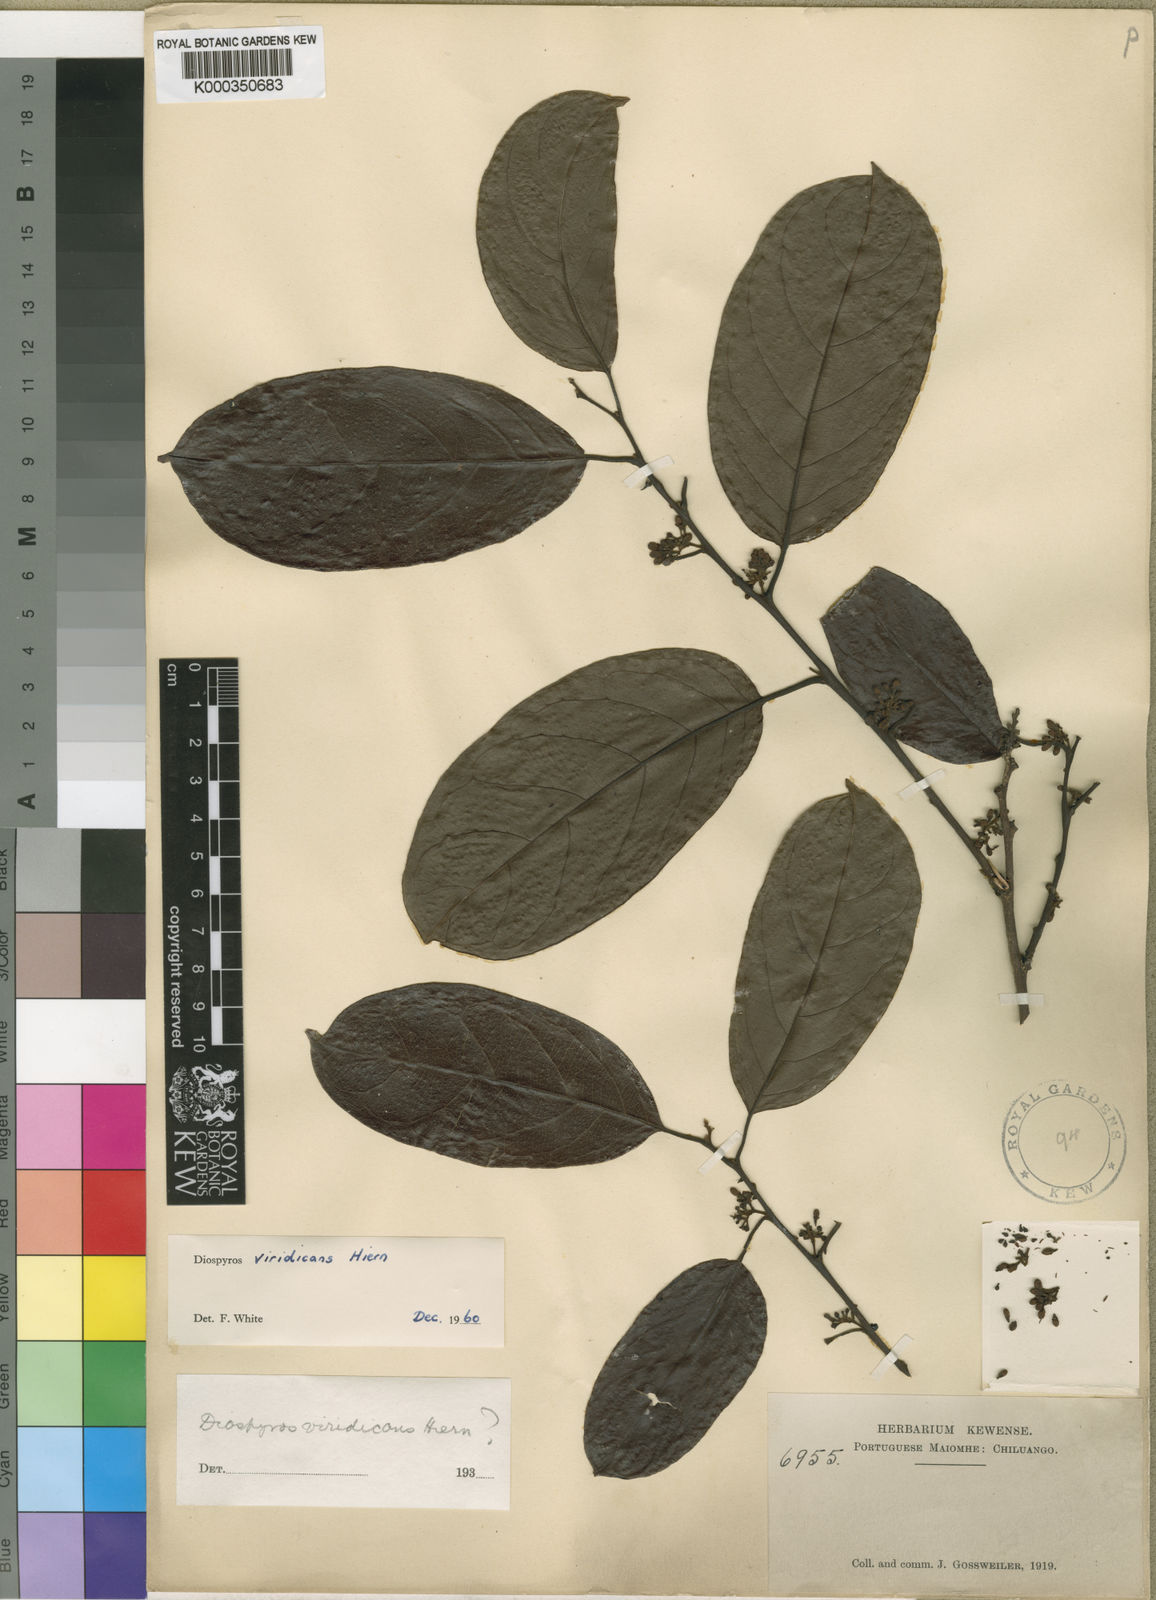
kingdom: Plantae
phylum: Tracheophyta
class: Magnoliopsida
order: Ericales
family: Ebenaceae
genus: Diospyros
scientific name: Diospyros viridicans
